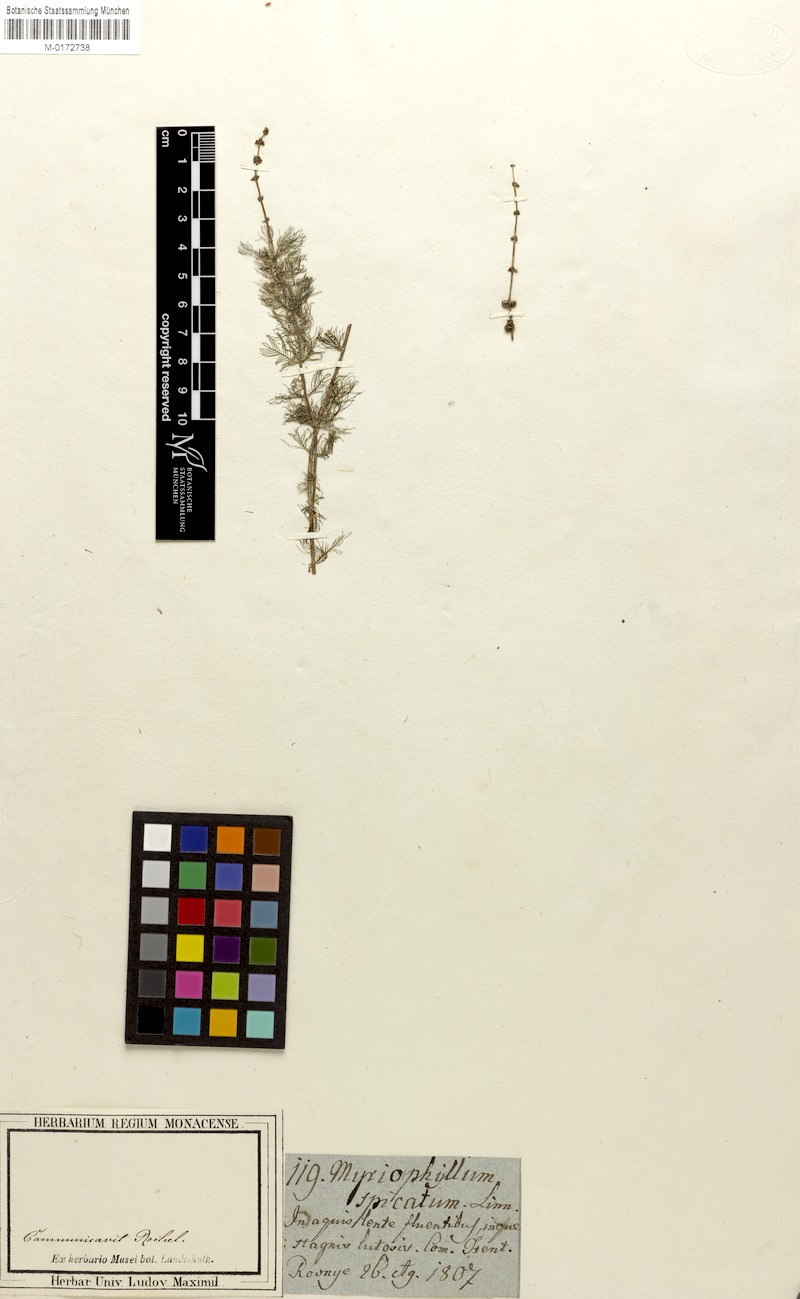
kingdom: Plantae
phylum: Tracheophyta
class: Magnoliopsida
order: Saxifragales
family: Haloragaceae
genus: Myriophyllum
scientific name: Myriophyllum spicatum
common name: Spiked water-milfoil
